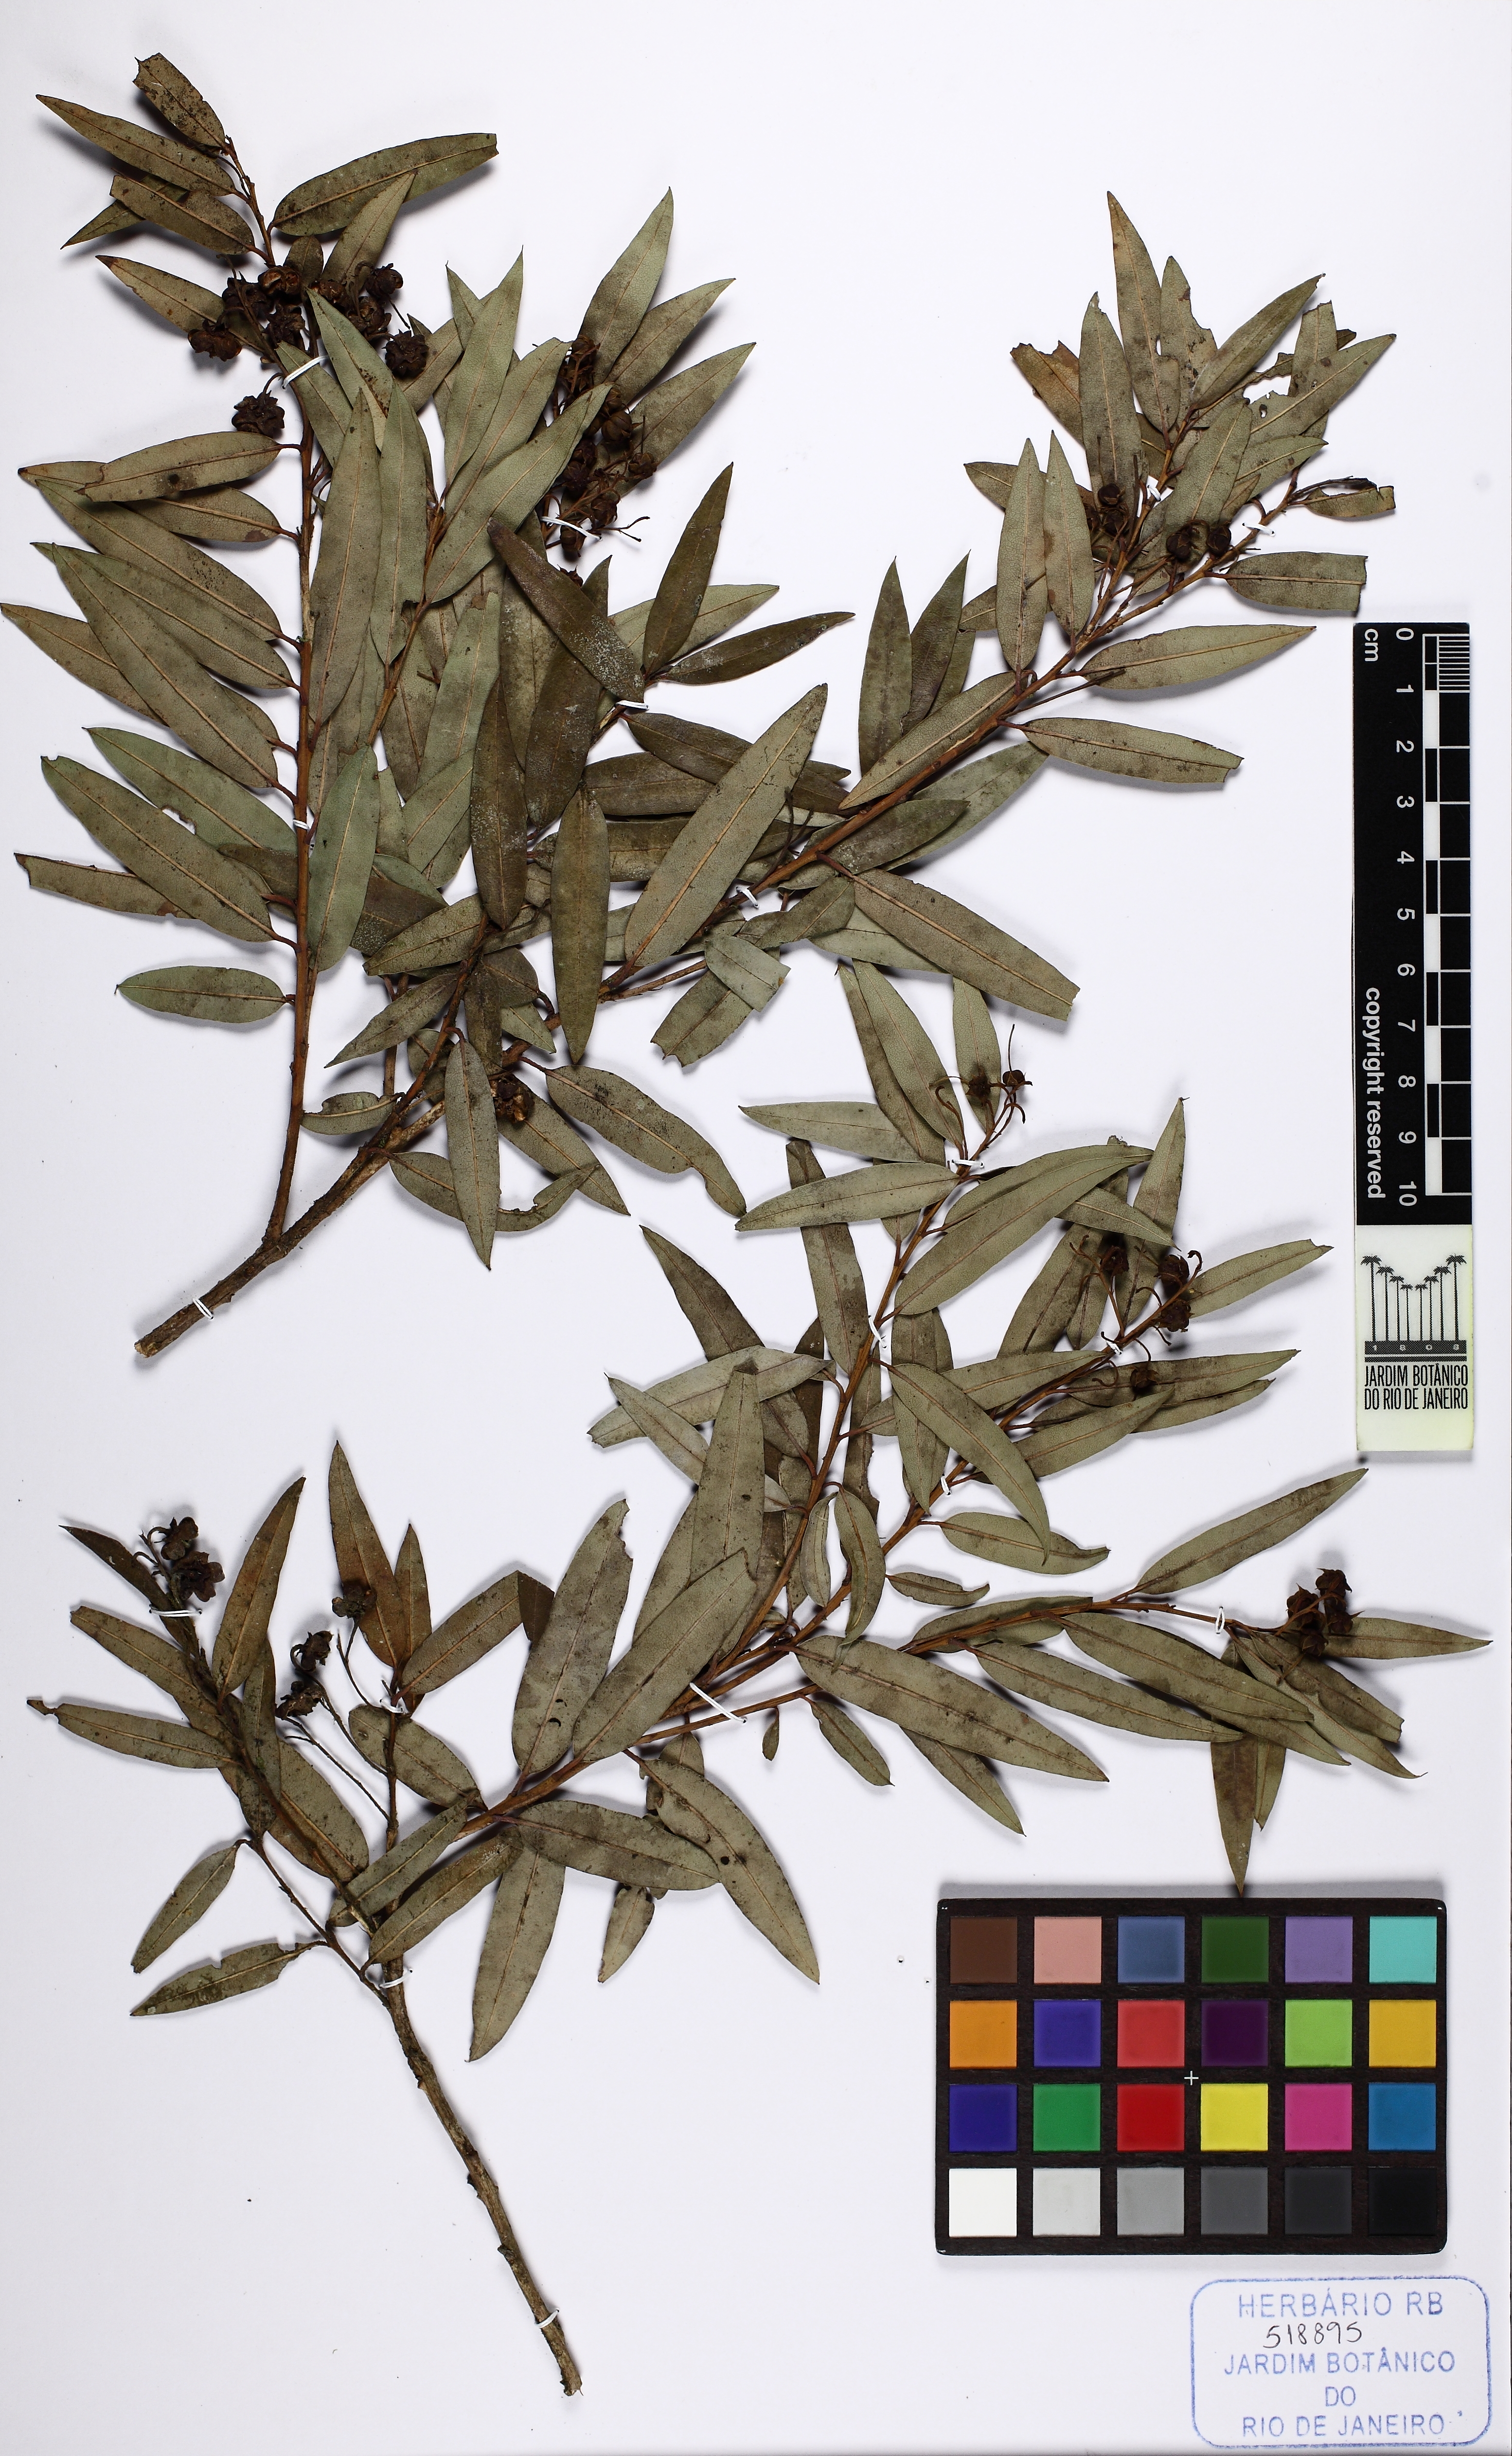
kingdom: Plantae
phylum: Tracheophyta
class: Magnoliopsida
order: Ericales
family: Ericaceae
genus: Agarista
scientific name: Agarista oleifolia
